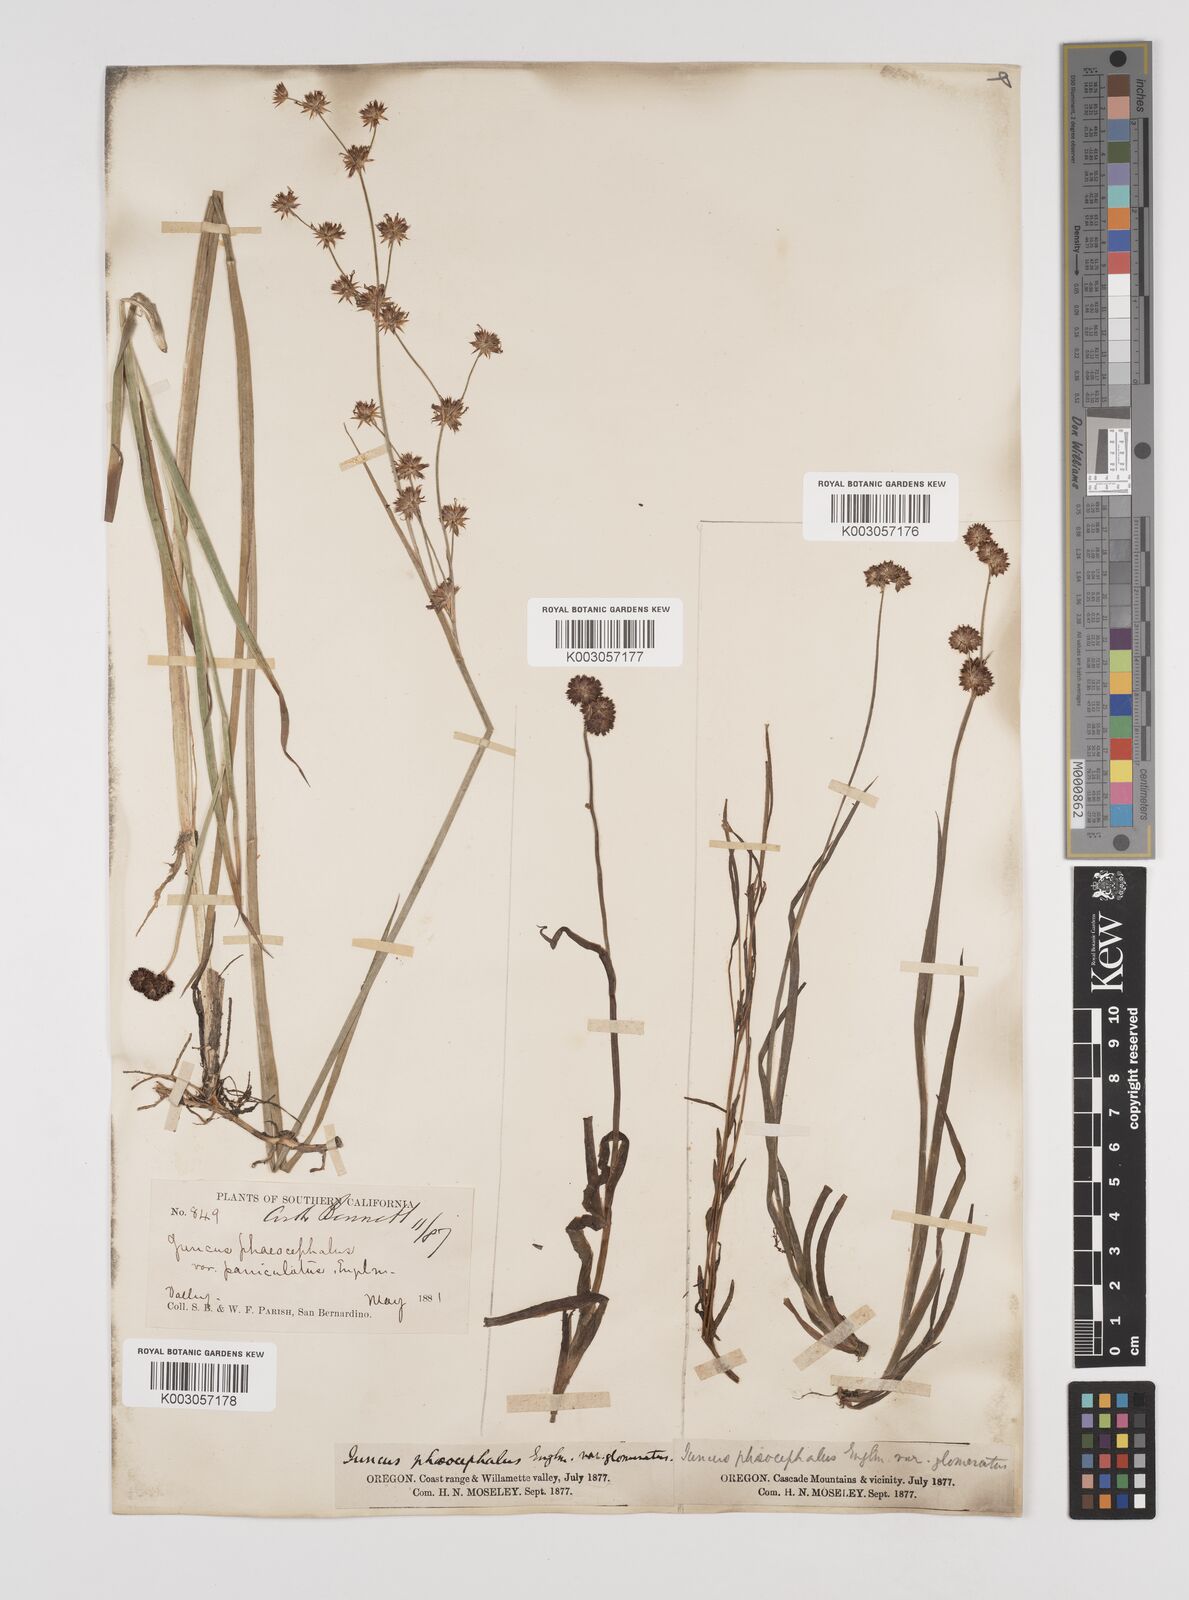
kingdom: Plantae
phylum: Tracheophyta
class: Liliopsida
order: Poales
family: Juncaceae
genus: Juncus
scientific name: Juncus phaeocephalus
